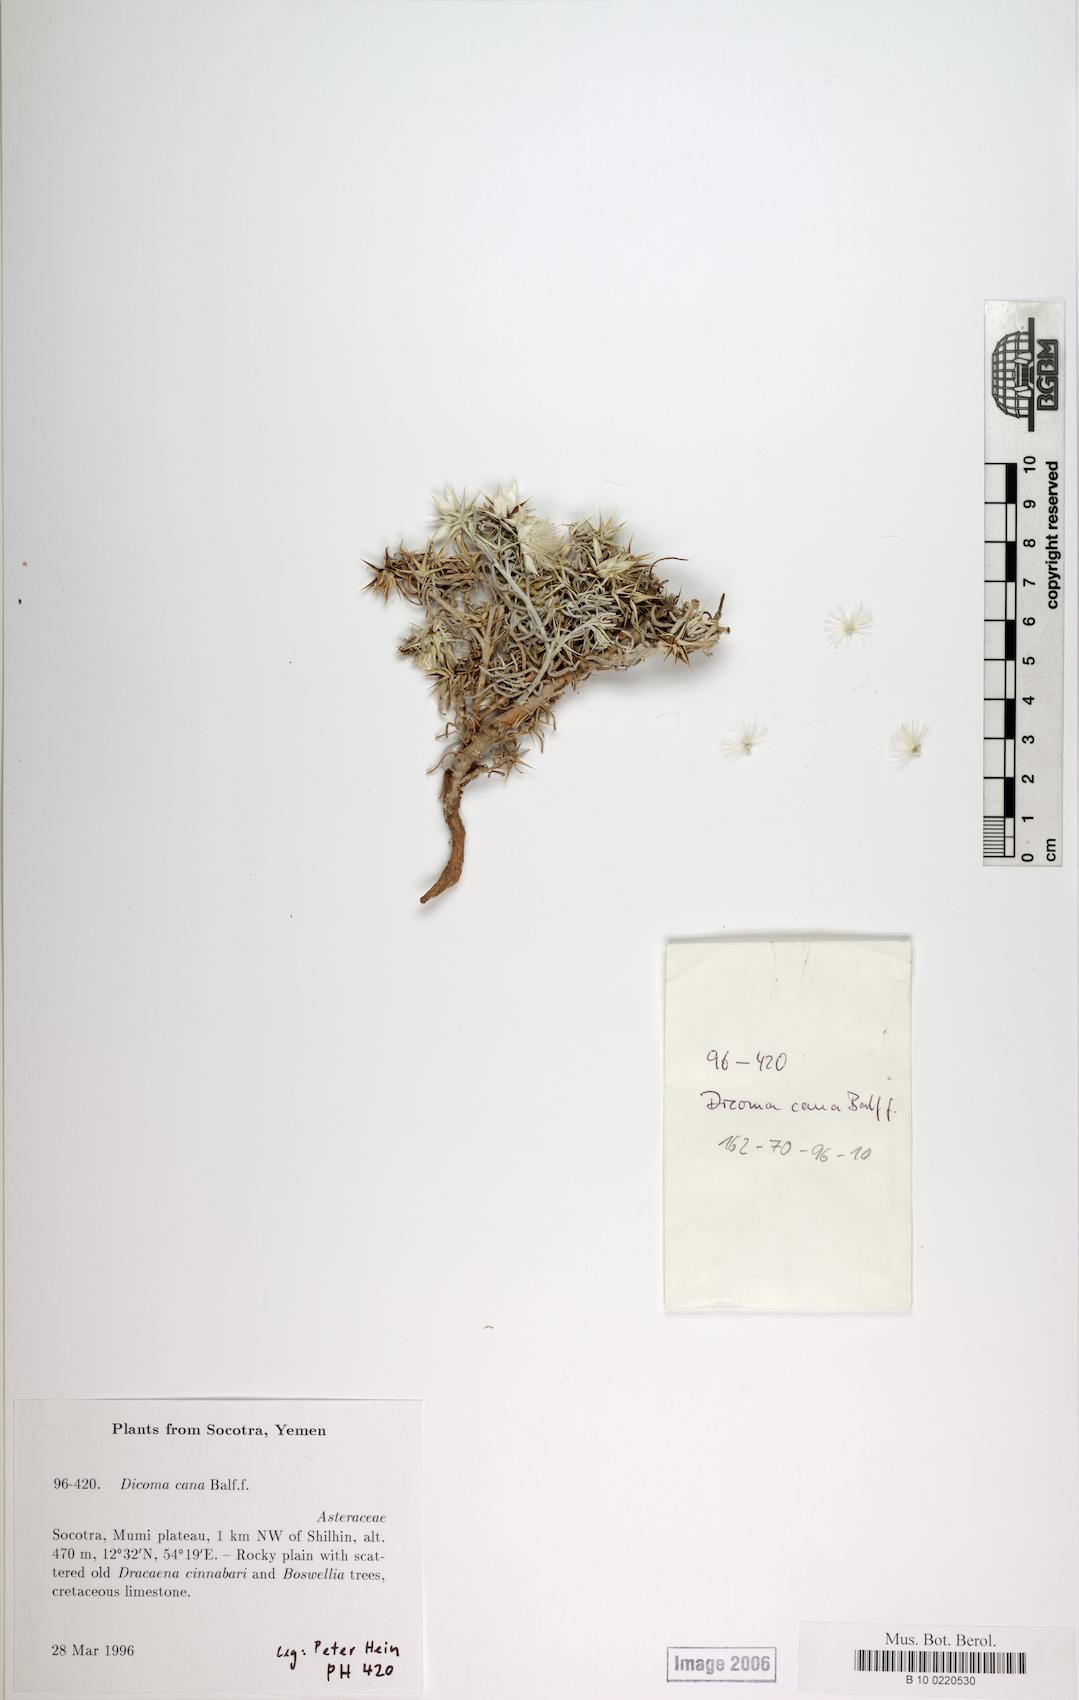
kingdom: Plantae
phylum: Tracheophyta
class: Magnoliopsida
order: Caryophyllales
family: Caryophyllaceae
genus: Stellaria
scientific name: Stellaria media
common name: Common chickweed
